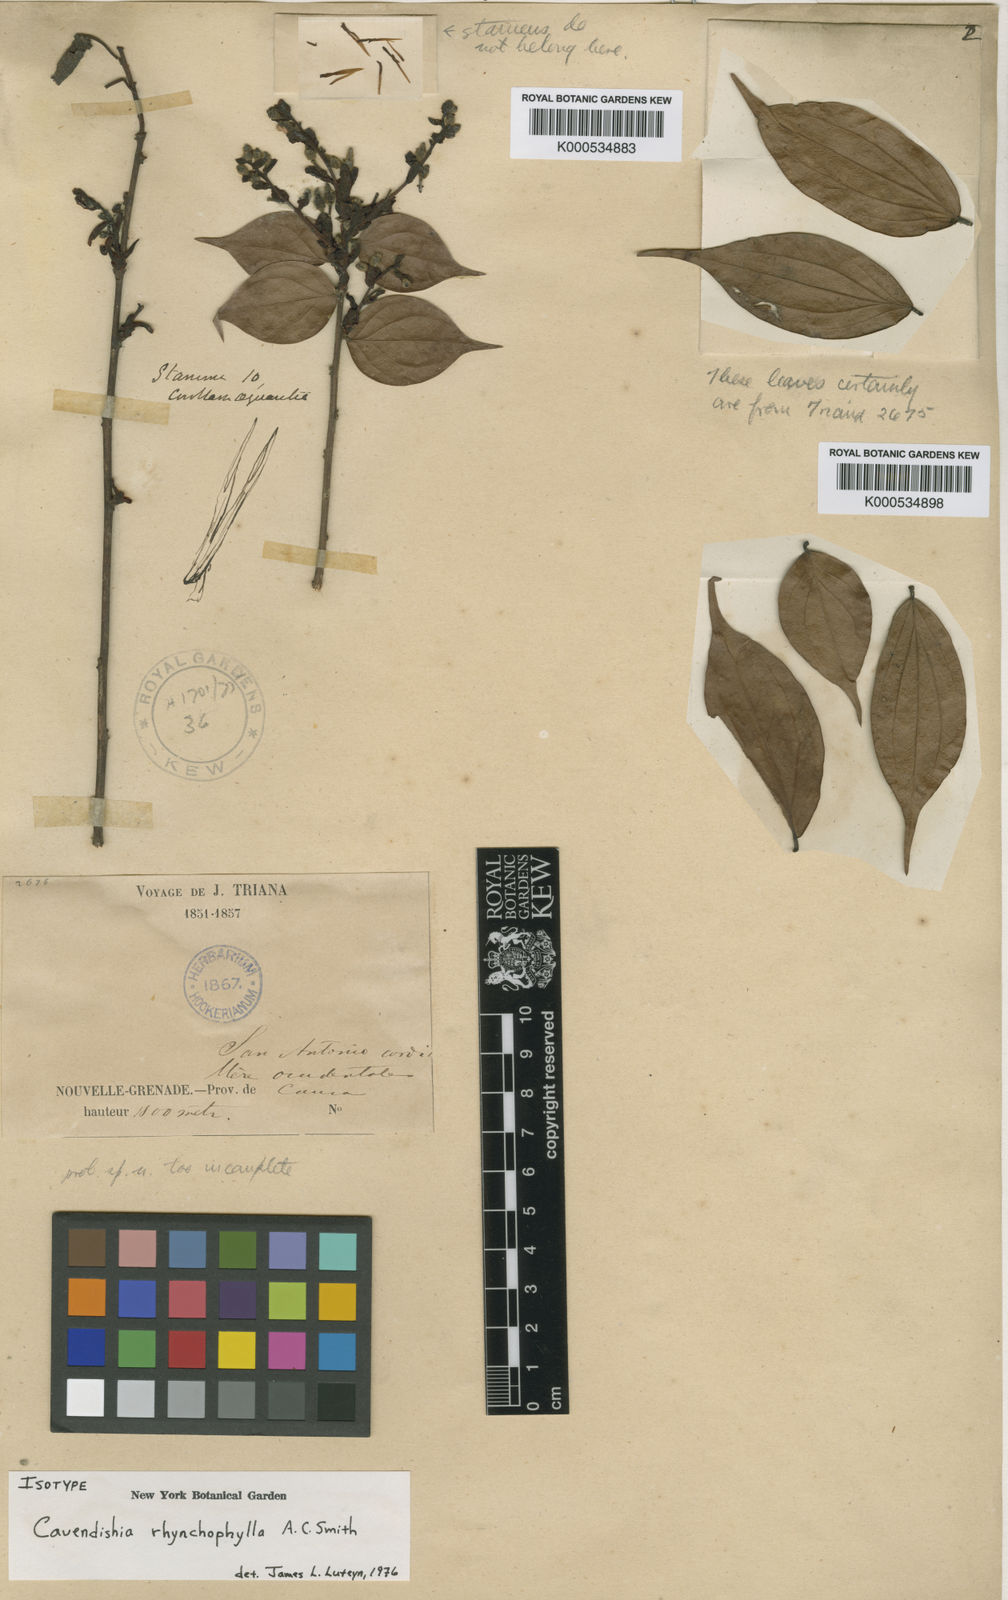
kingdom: Plantae
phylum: Tracheophyta
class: Magnoliopsida
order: Ericales
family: Ericaceae
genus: Cavendishia
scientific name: Cavendishia rhynchophylla
